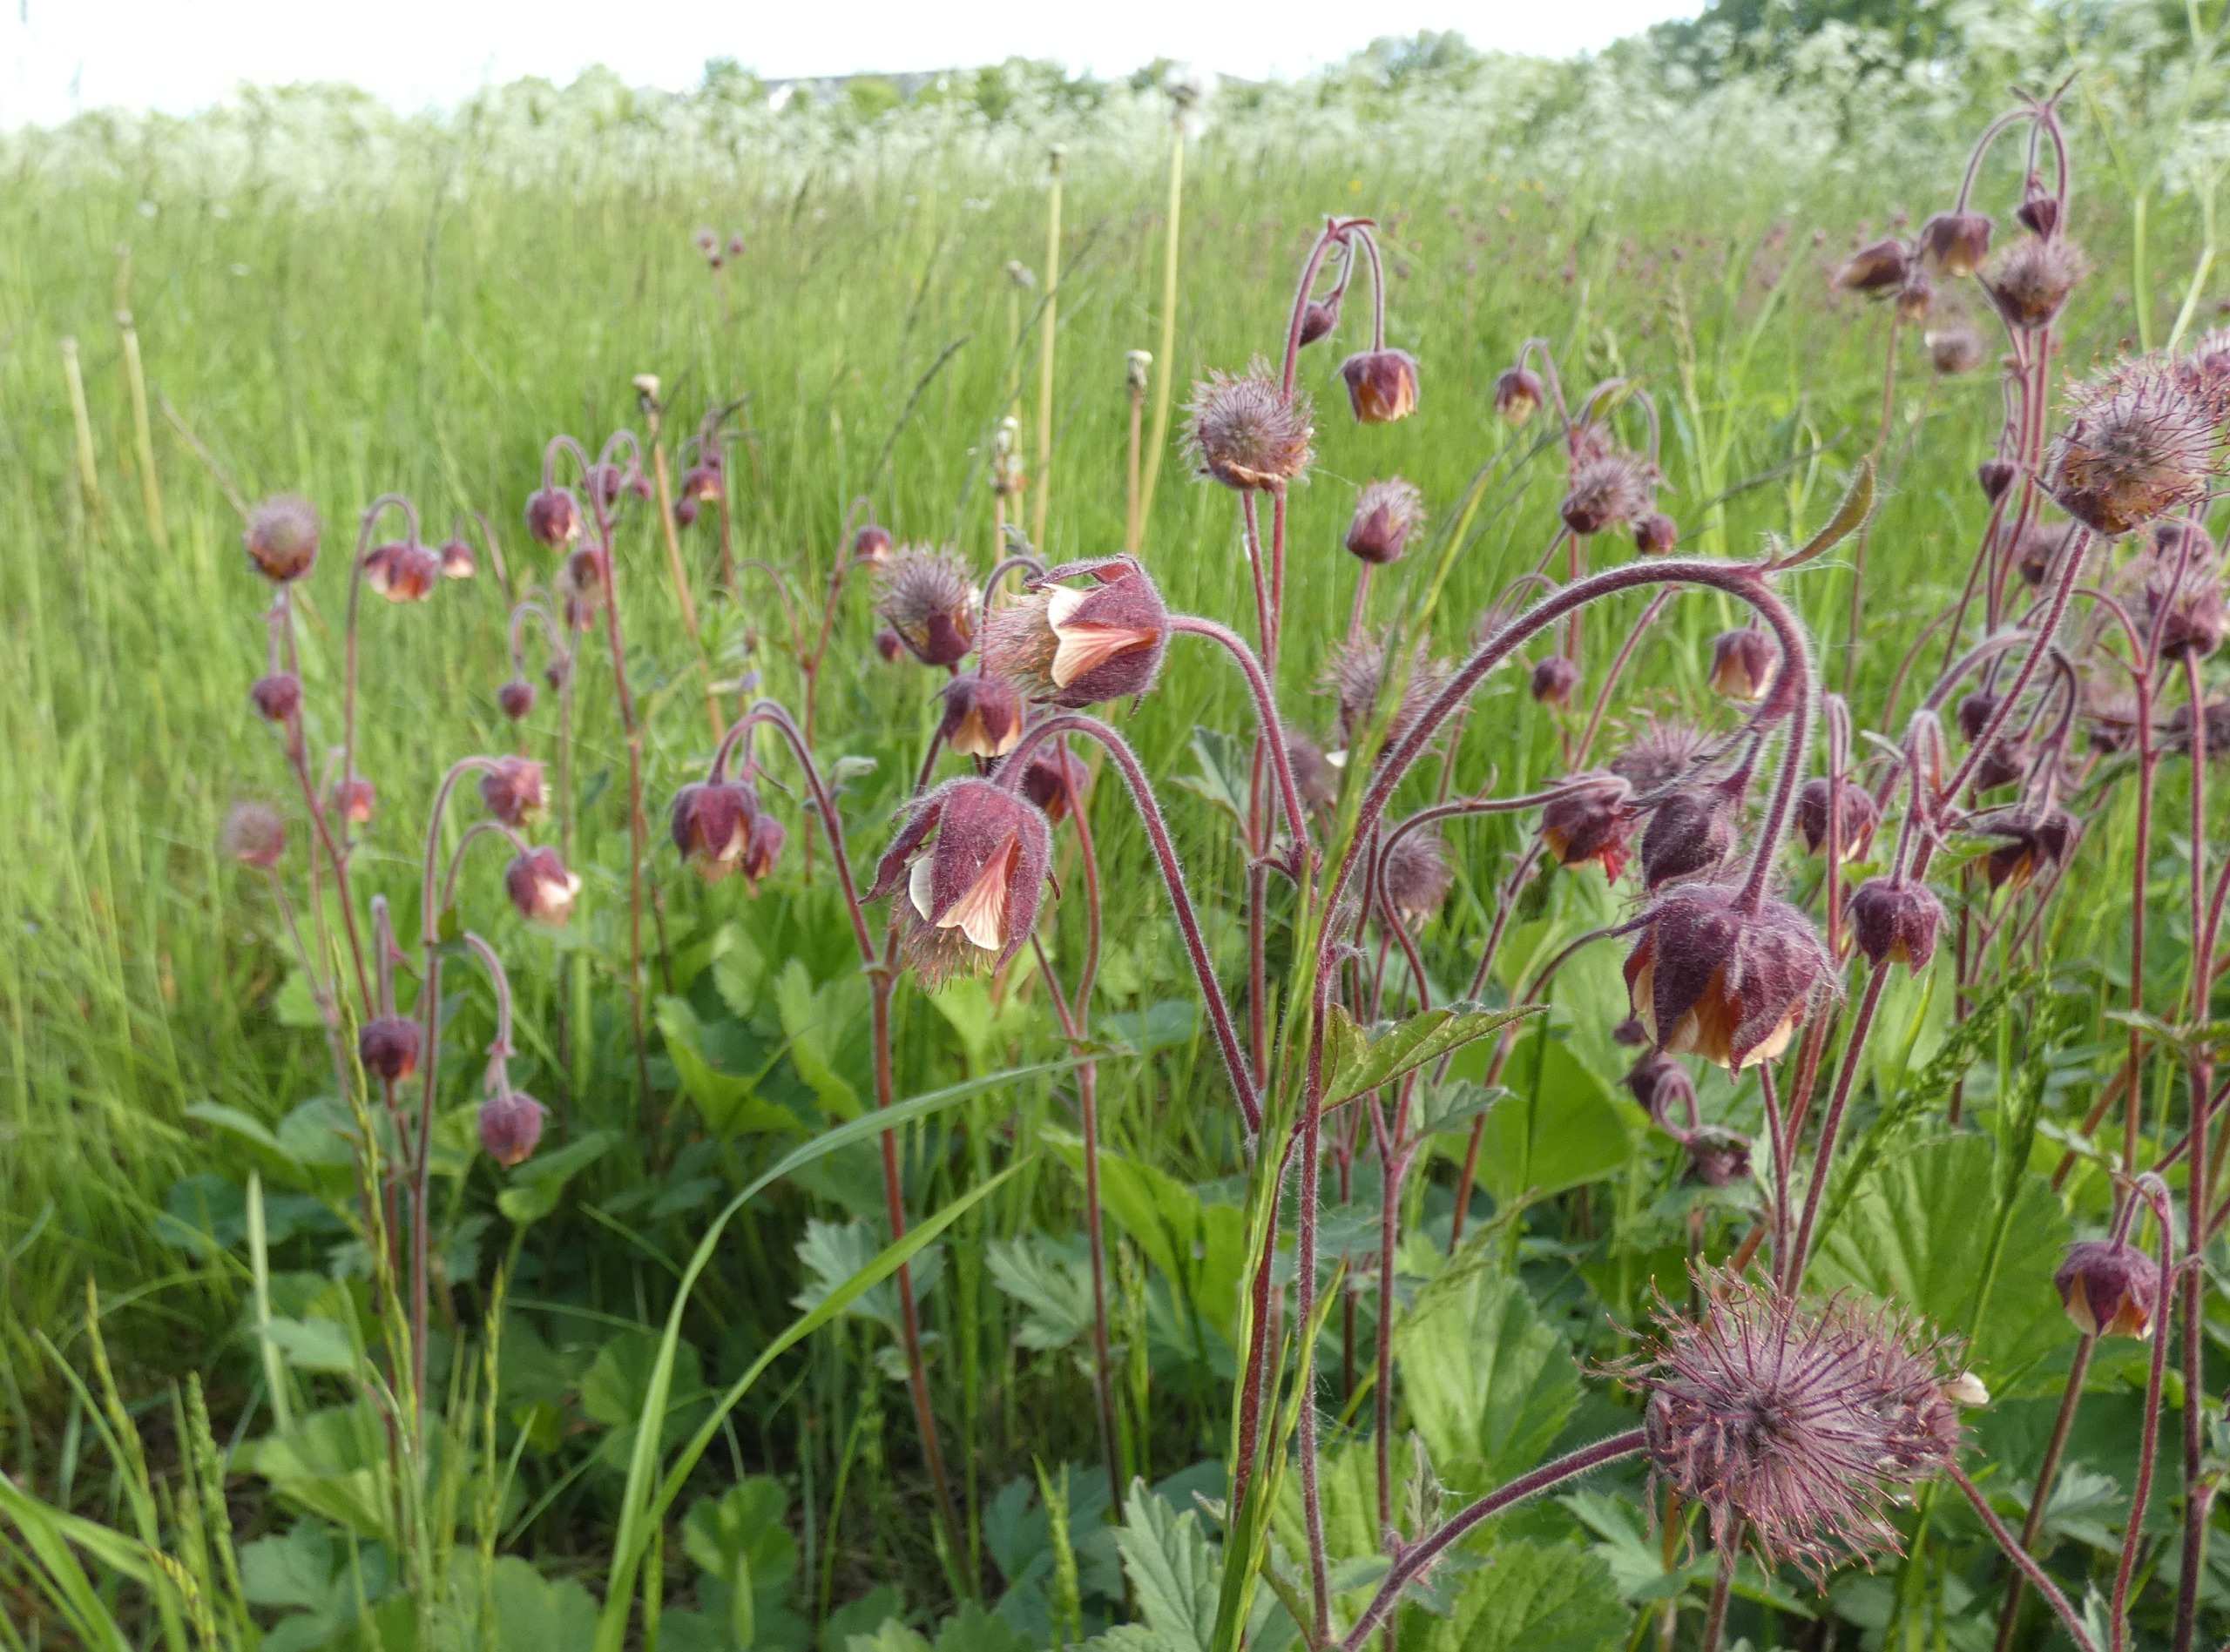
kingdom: Plantae
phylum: Tracheophyta
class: Magnoliopsida
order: Rosales
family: Rosaceae
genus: Geum
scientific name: Geum rivale
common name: Eng-nellikerod
